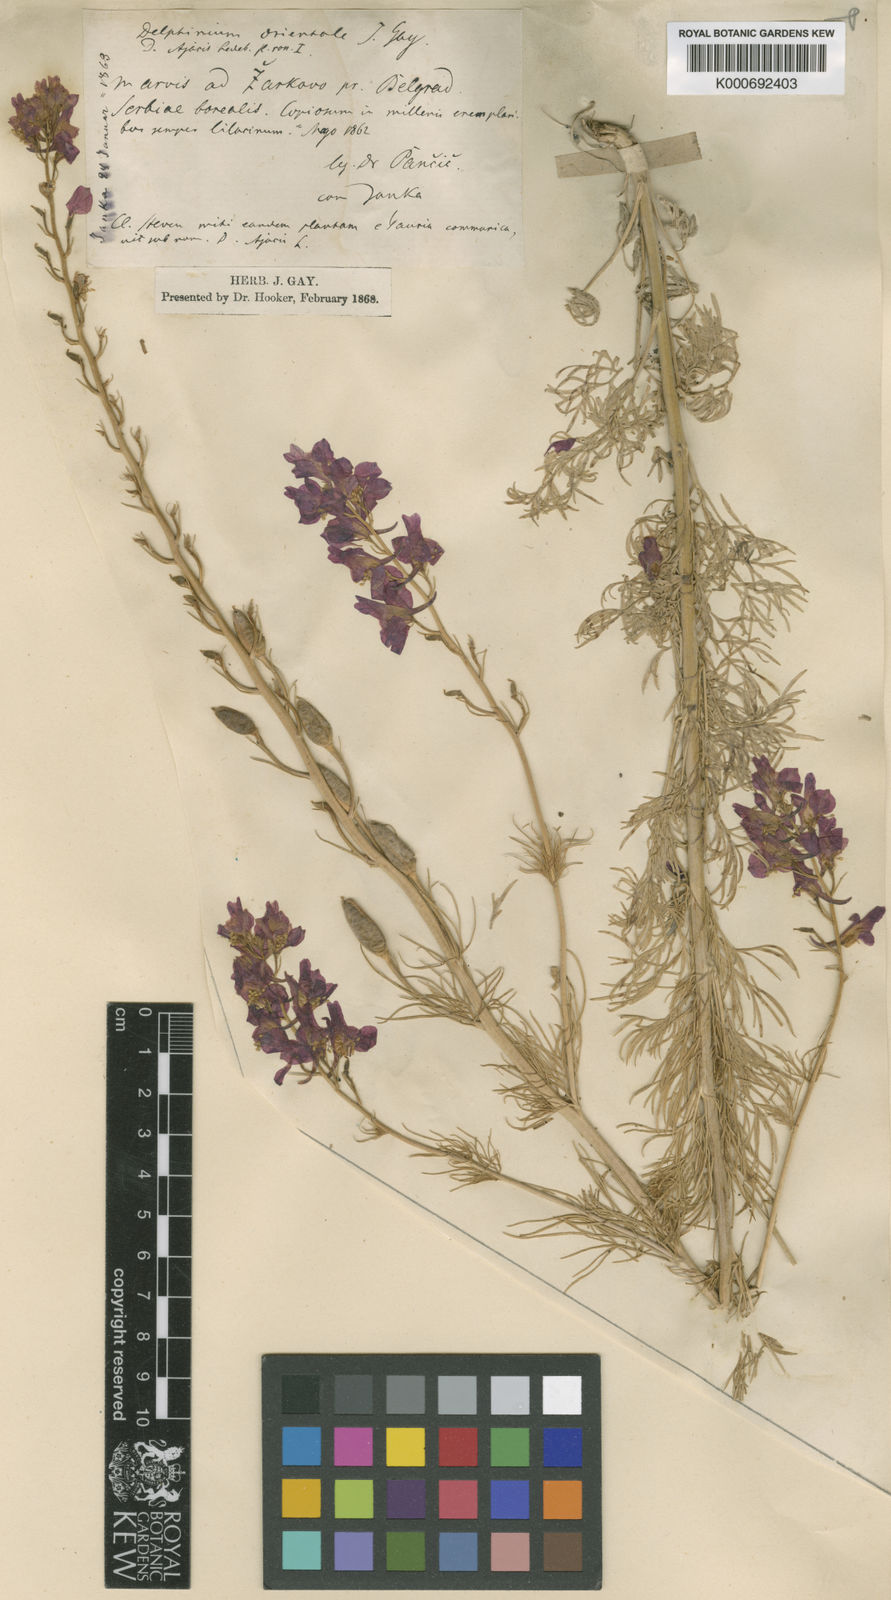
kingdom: Plantae
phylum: Tracheophyta
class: Magnoliopsida
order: Ranunculales
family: Ranunculaceae
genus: Delphinium
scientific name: Delphinium
